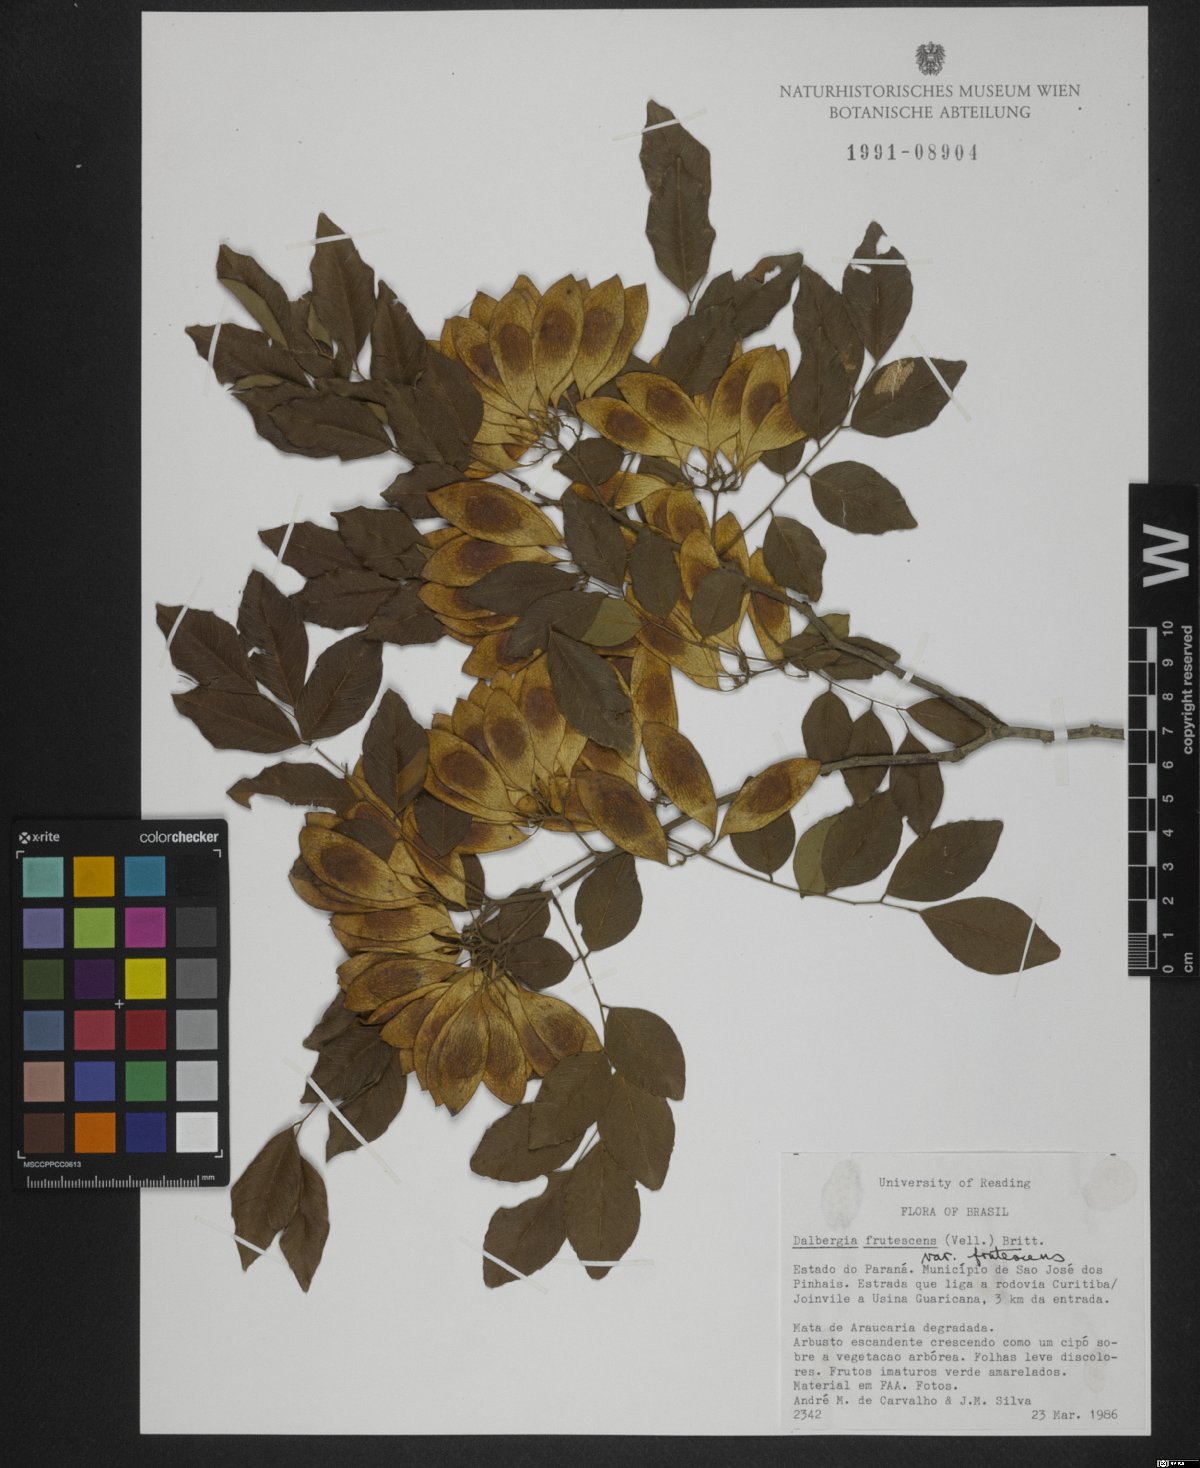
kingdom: Plantae
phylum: Tracheophyta
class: Magnoliopsida
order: Fabales
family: Fabaceae
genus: Dalbergia
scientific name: Dalbergia frutescens
